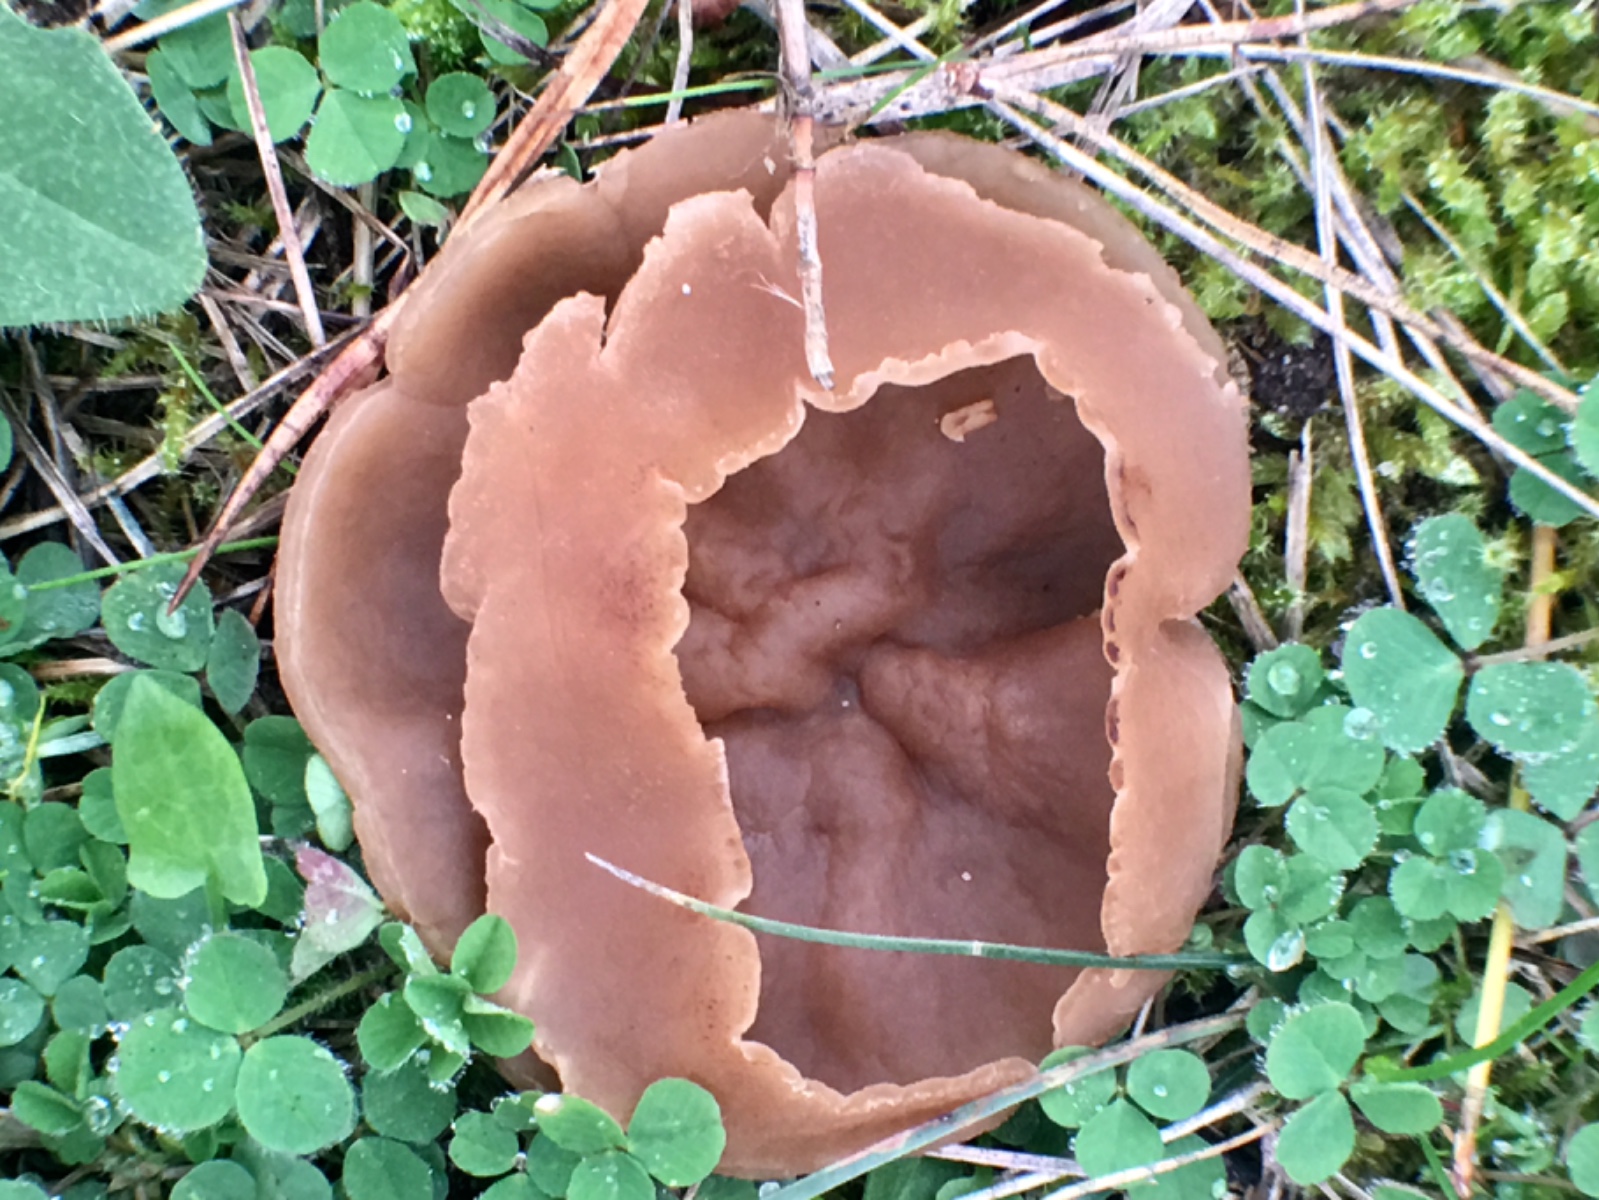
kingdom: Fungi
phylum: Ascomycota
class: Pezizomycetes
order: Pezizales
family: Pezizaceae
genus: Peziza
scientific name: Peziza
